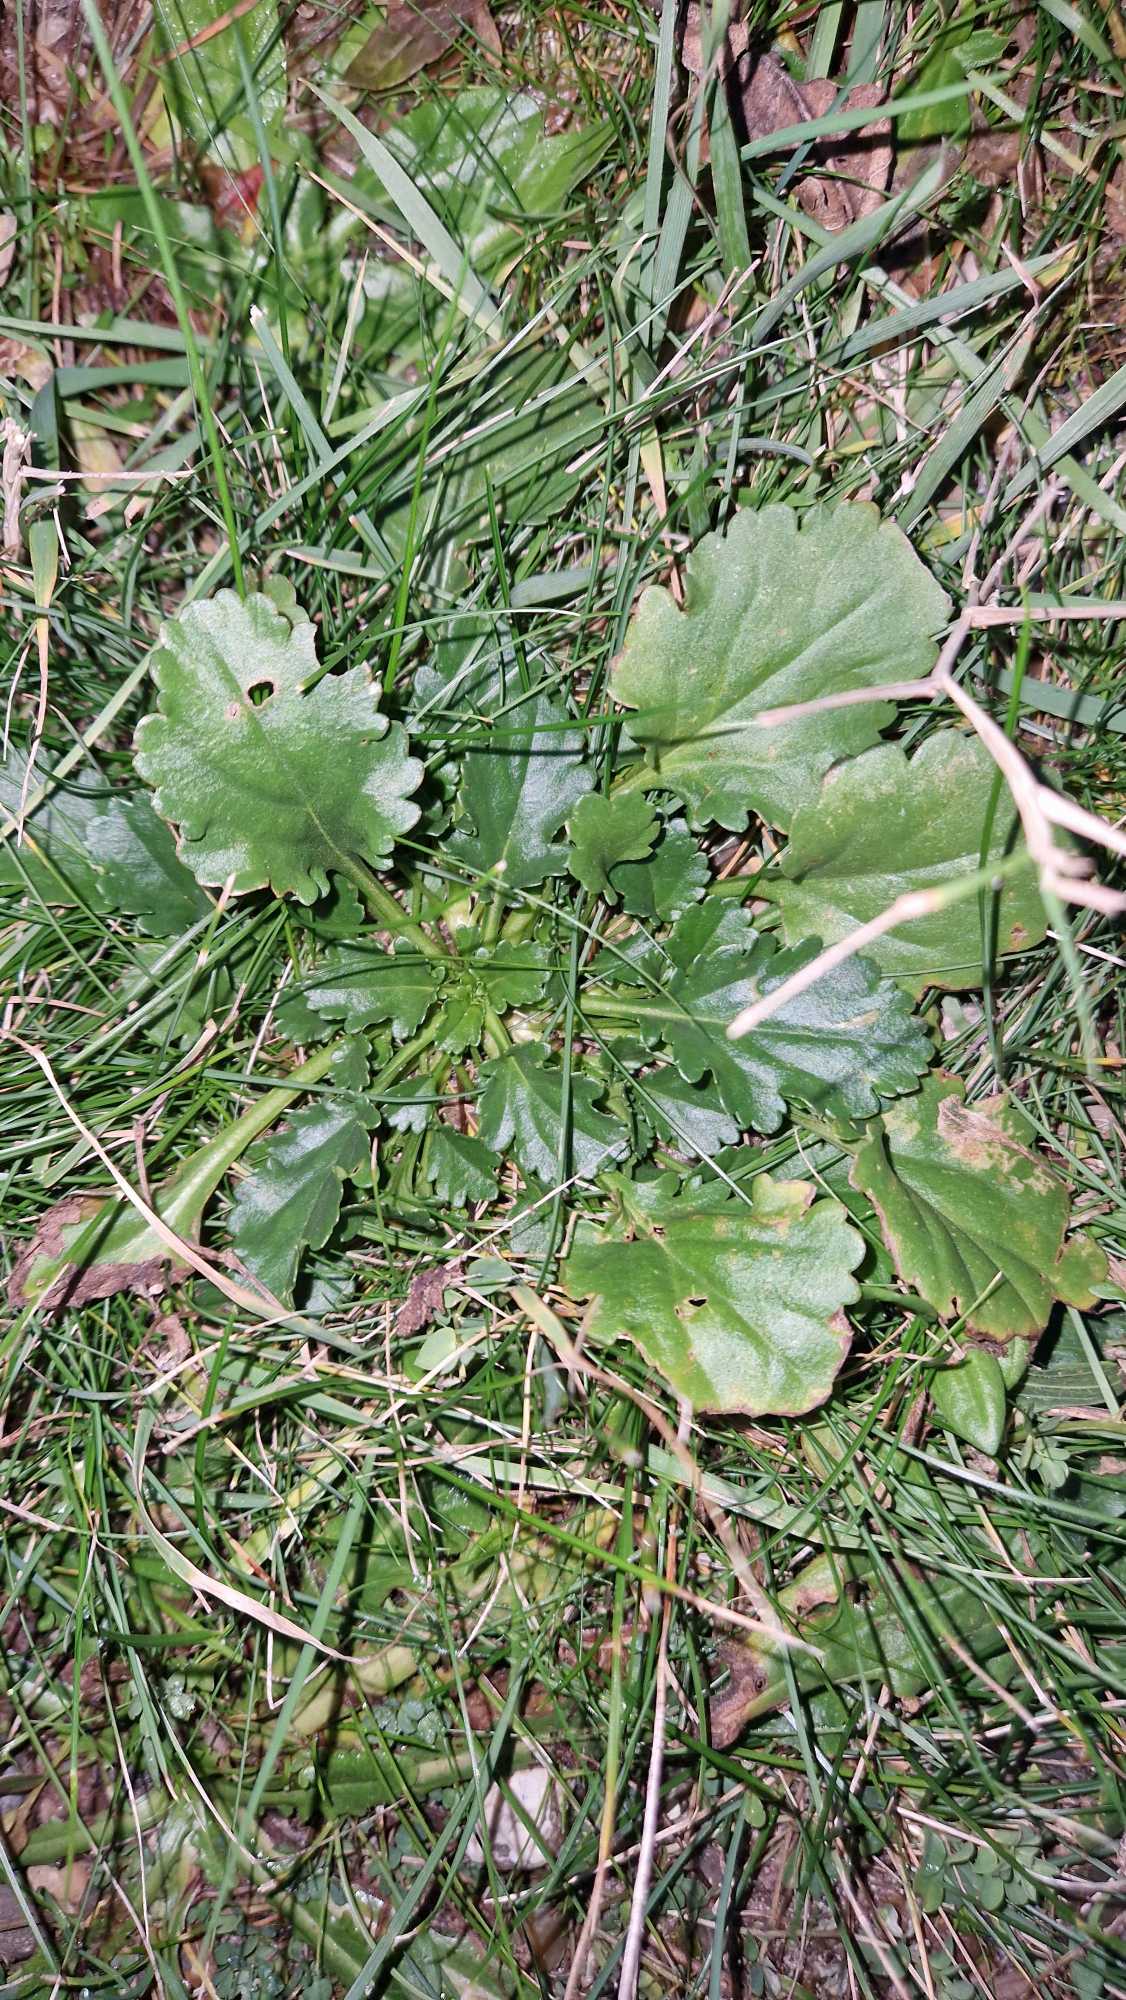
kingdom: Plantae
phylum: Tracheophyta
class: Magnoliopsida
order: Asterales
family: Asteraceae
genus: Leucanthemum
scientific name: Leucanthemum vulgare
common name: Hvid okseøje
